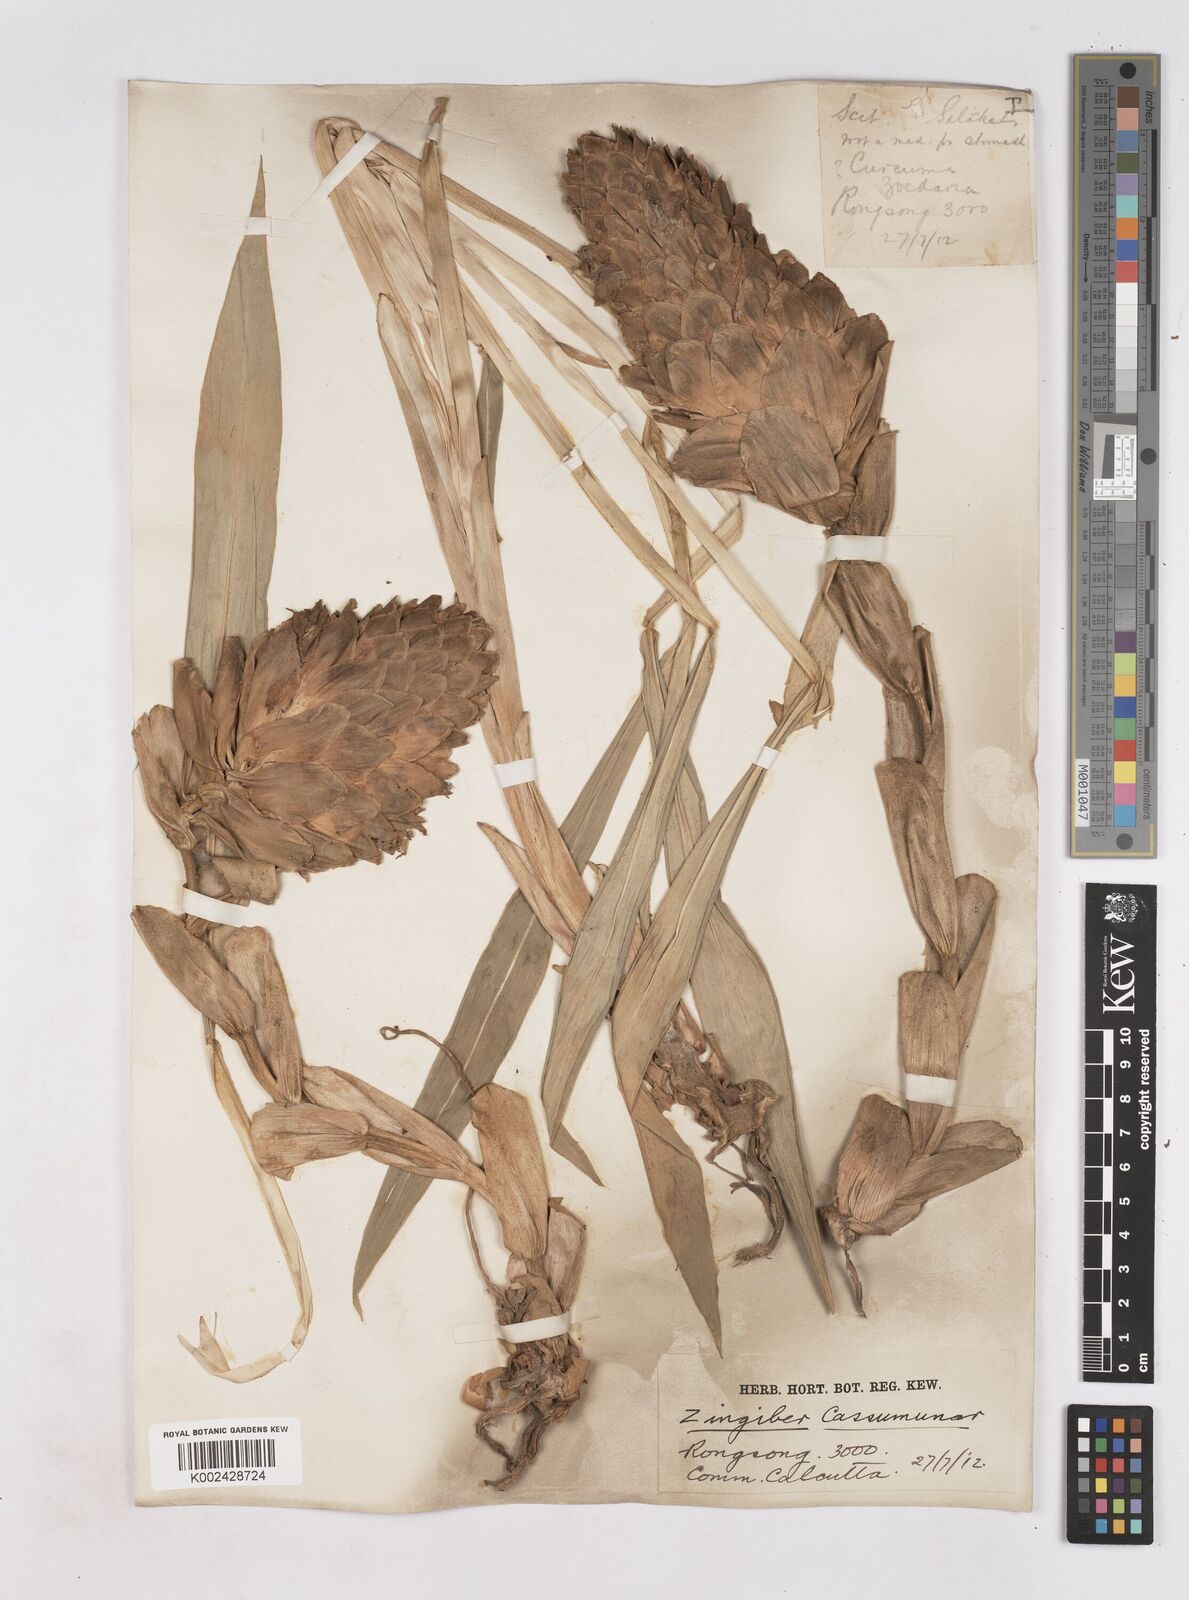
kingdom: Plantae
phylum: Tracheophyta
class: Liliopsida
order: Zingiberales
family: Zingiberaceae
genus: Zingiber
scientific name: Zingiber montanum
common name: Bengal ginger
